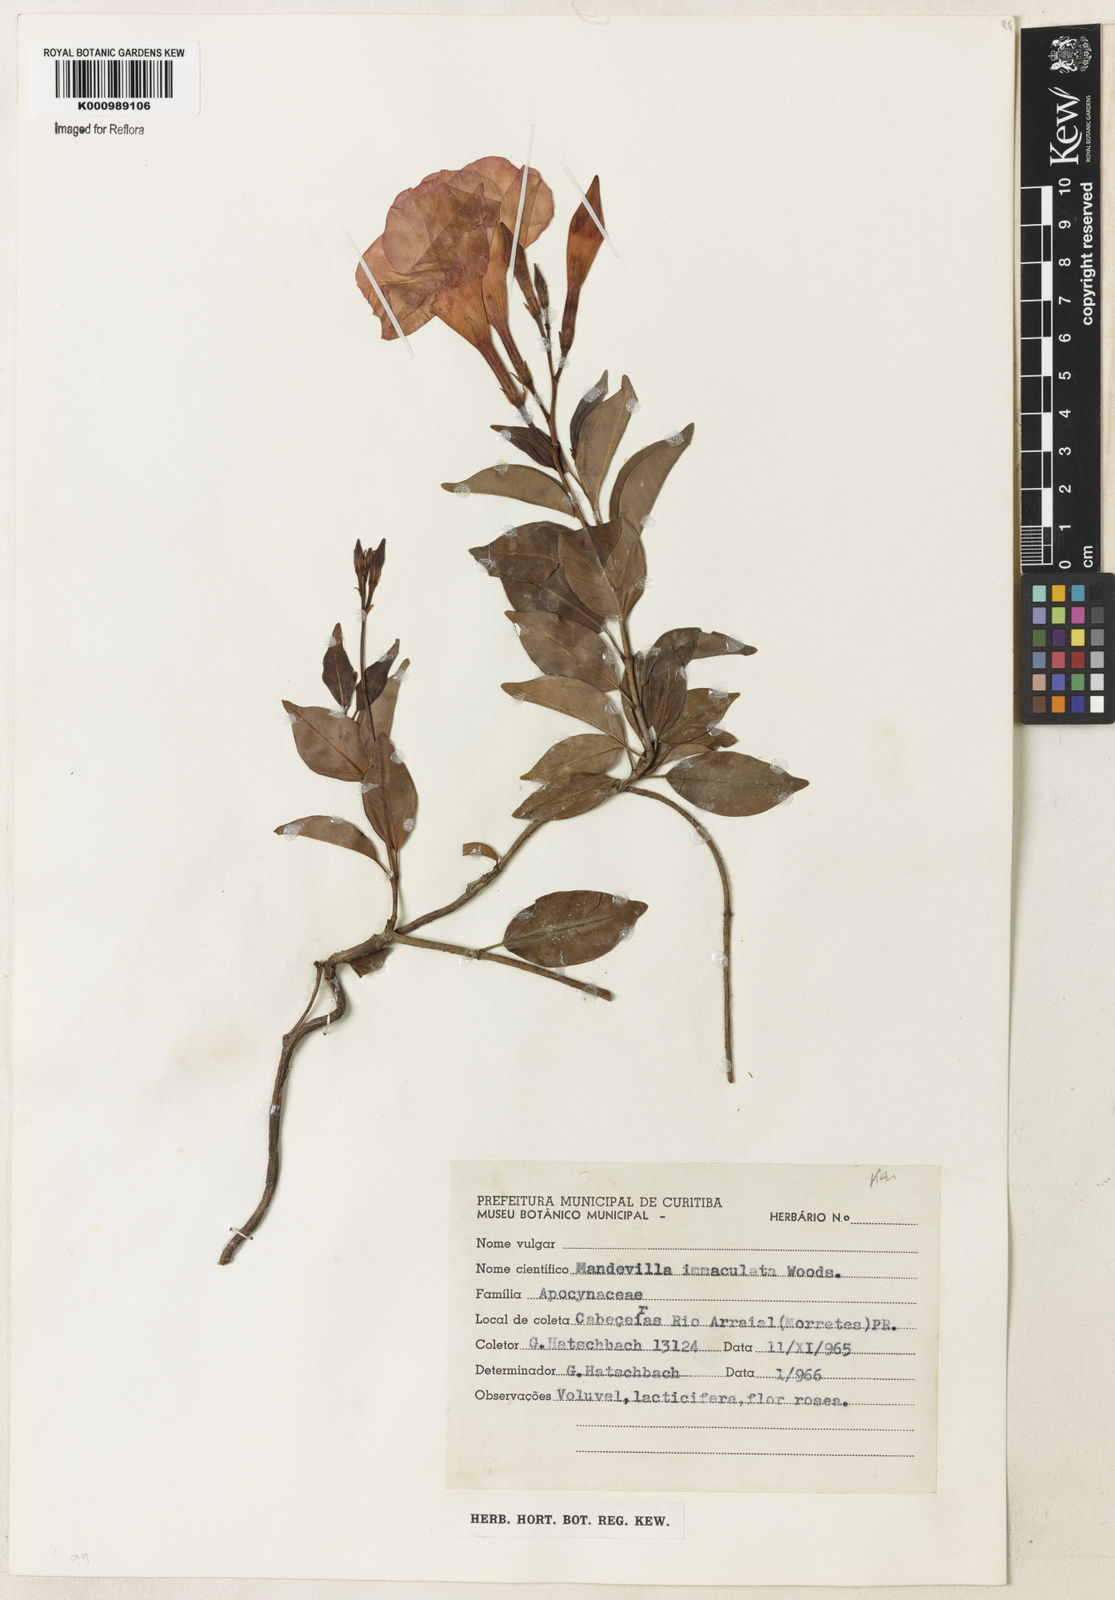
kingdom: Plantae
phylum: Tracheophyta
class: Magnoliopsida
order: Gentianales
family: Apocynaceae
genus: Mandevilla
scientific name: Mandevilla immaculata
